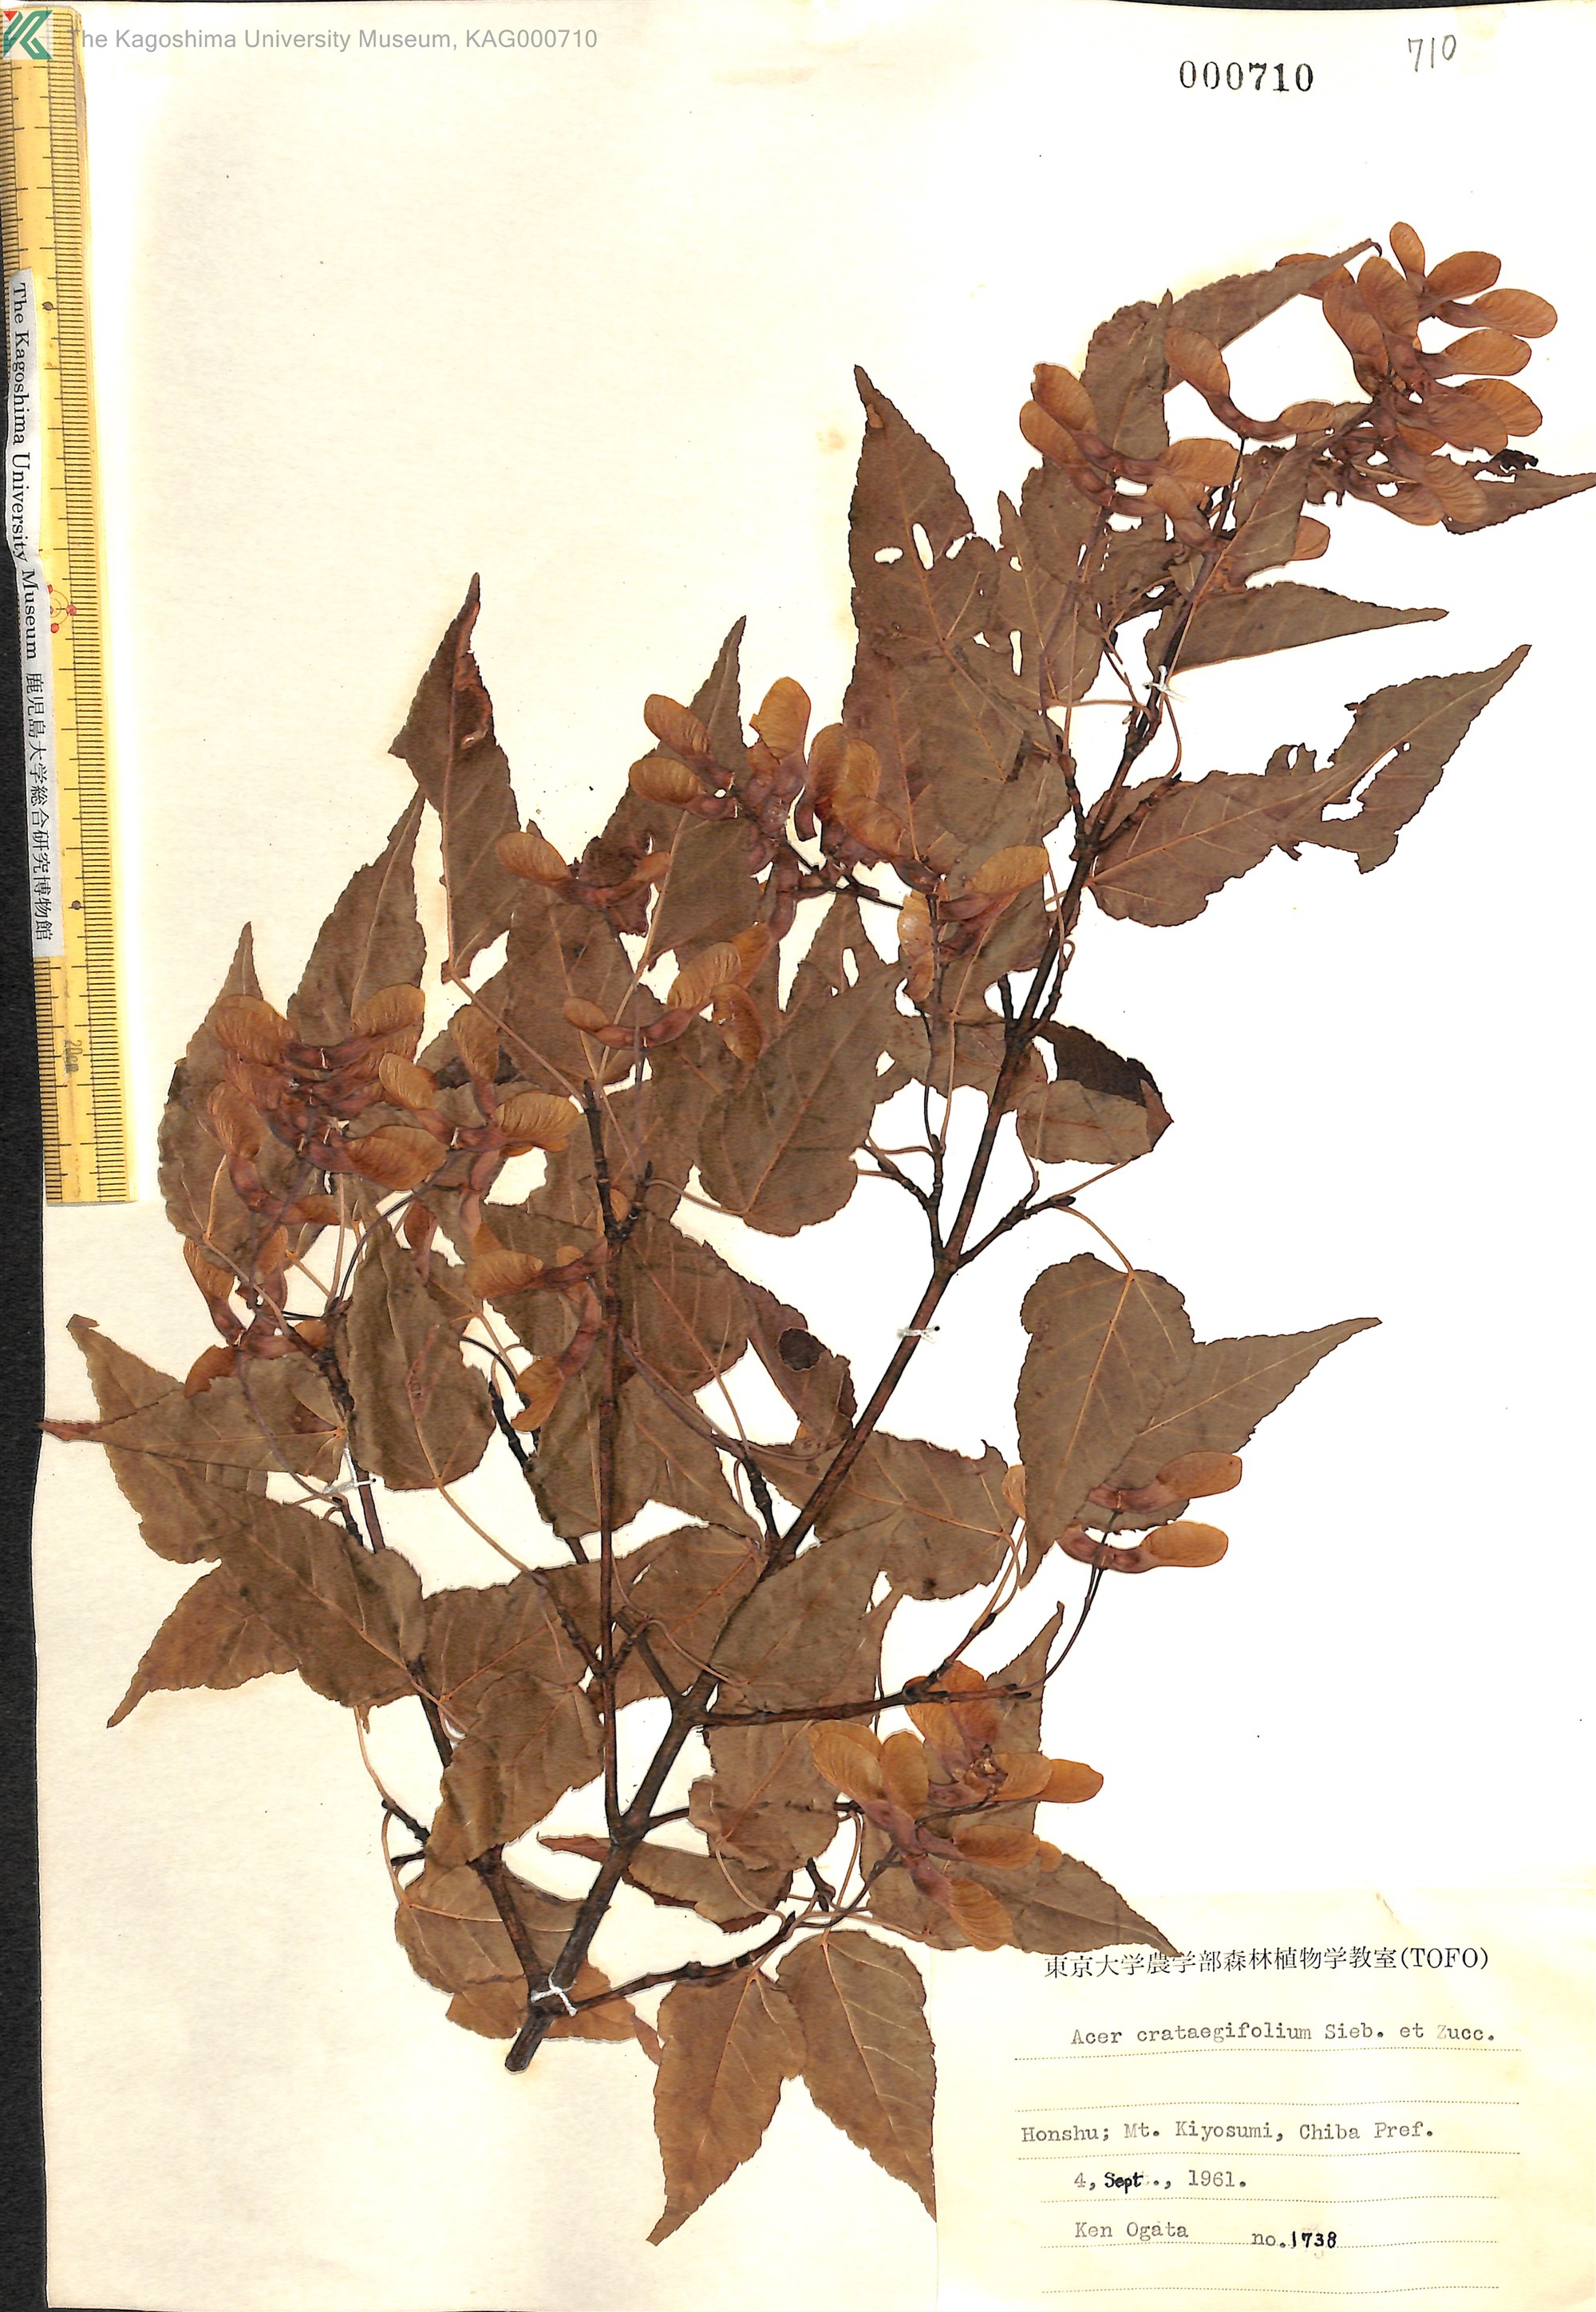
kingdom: Plantae
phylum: Tracheophyta
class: Magnoliopsida
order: Sapindales
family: Sapindaceae
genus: Acer
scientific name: Acer crataegifolium
